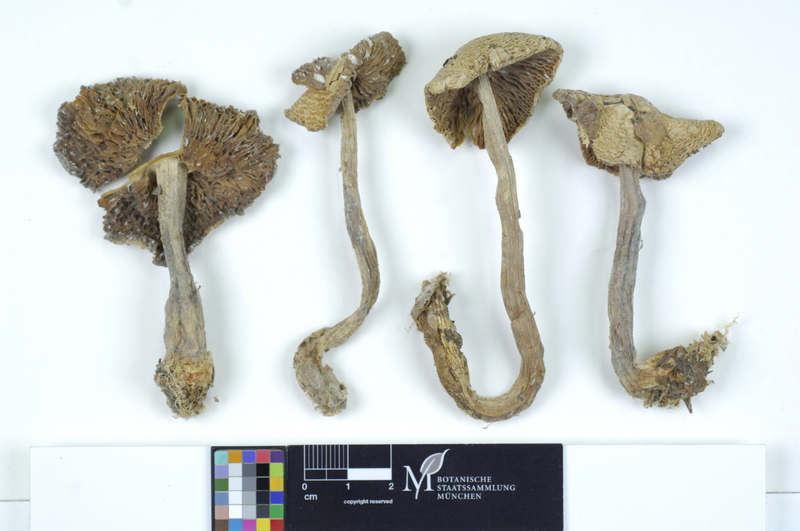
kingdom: Fungi
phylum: Basidiomycota
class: Agaricomycetes
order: Agaricales
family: Agaricaceae
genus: Lepiota
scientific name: Lepiota ignivolvata
